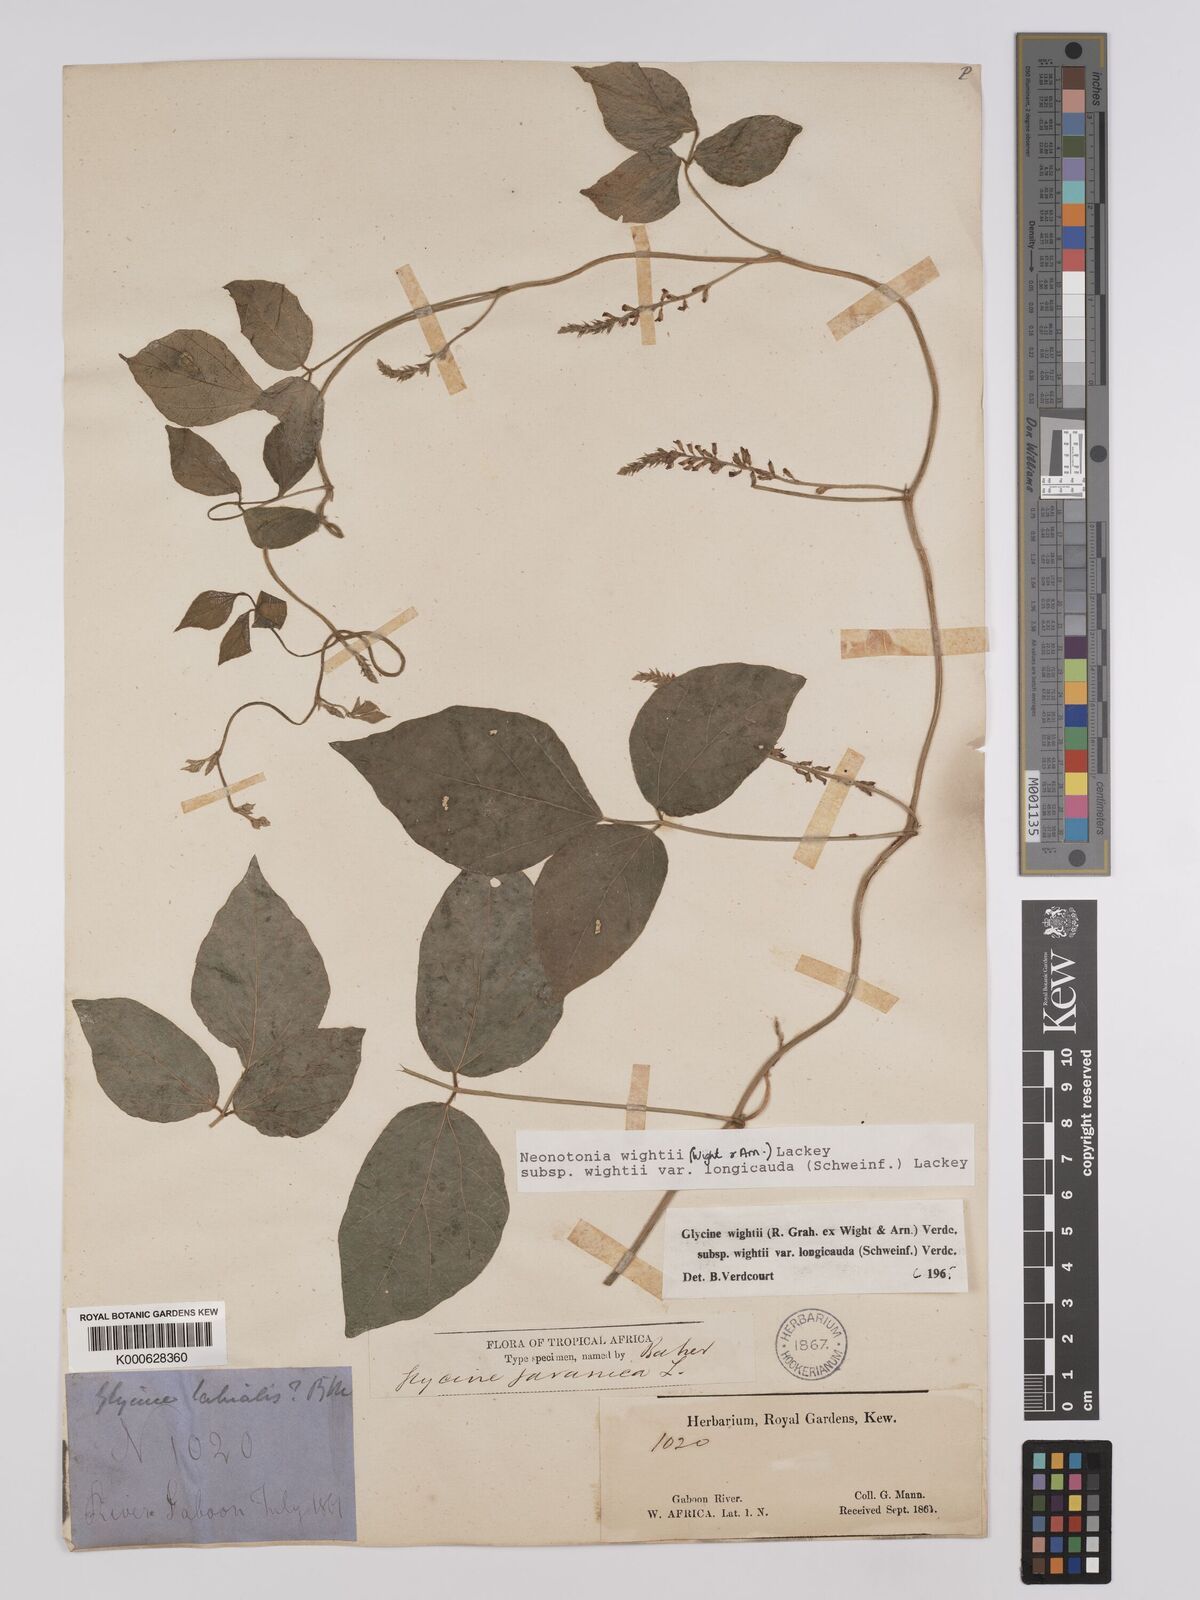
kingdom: Plantae
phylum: Tracheophyta
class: Magnoliopsida
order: Fabales
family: Fabaceae
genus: Neonotonia
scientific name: Neonotonia wightii
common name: Perennial soybean
